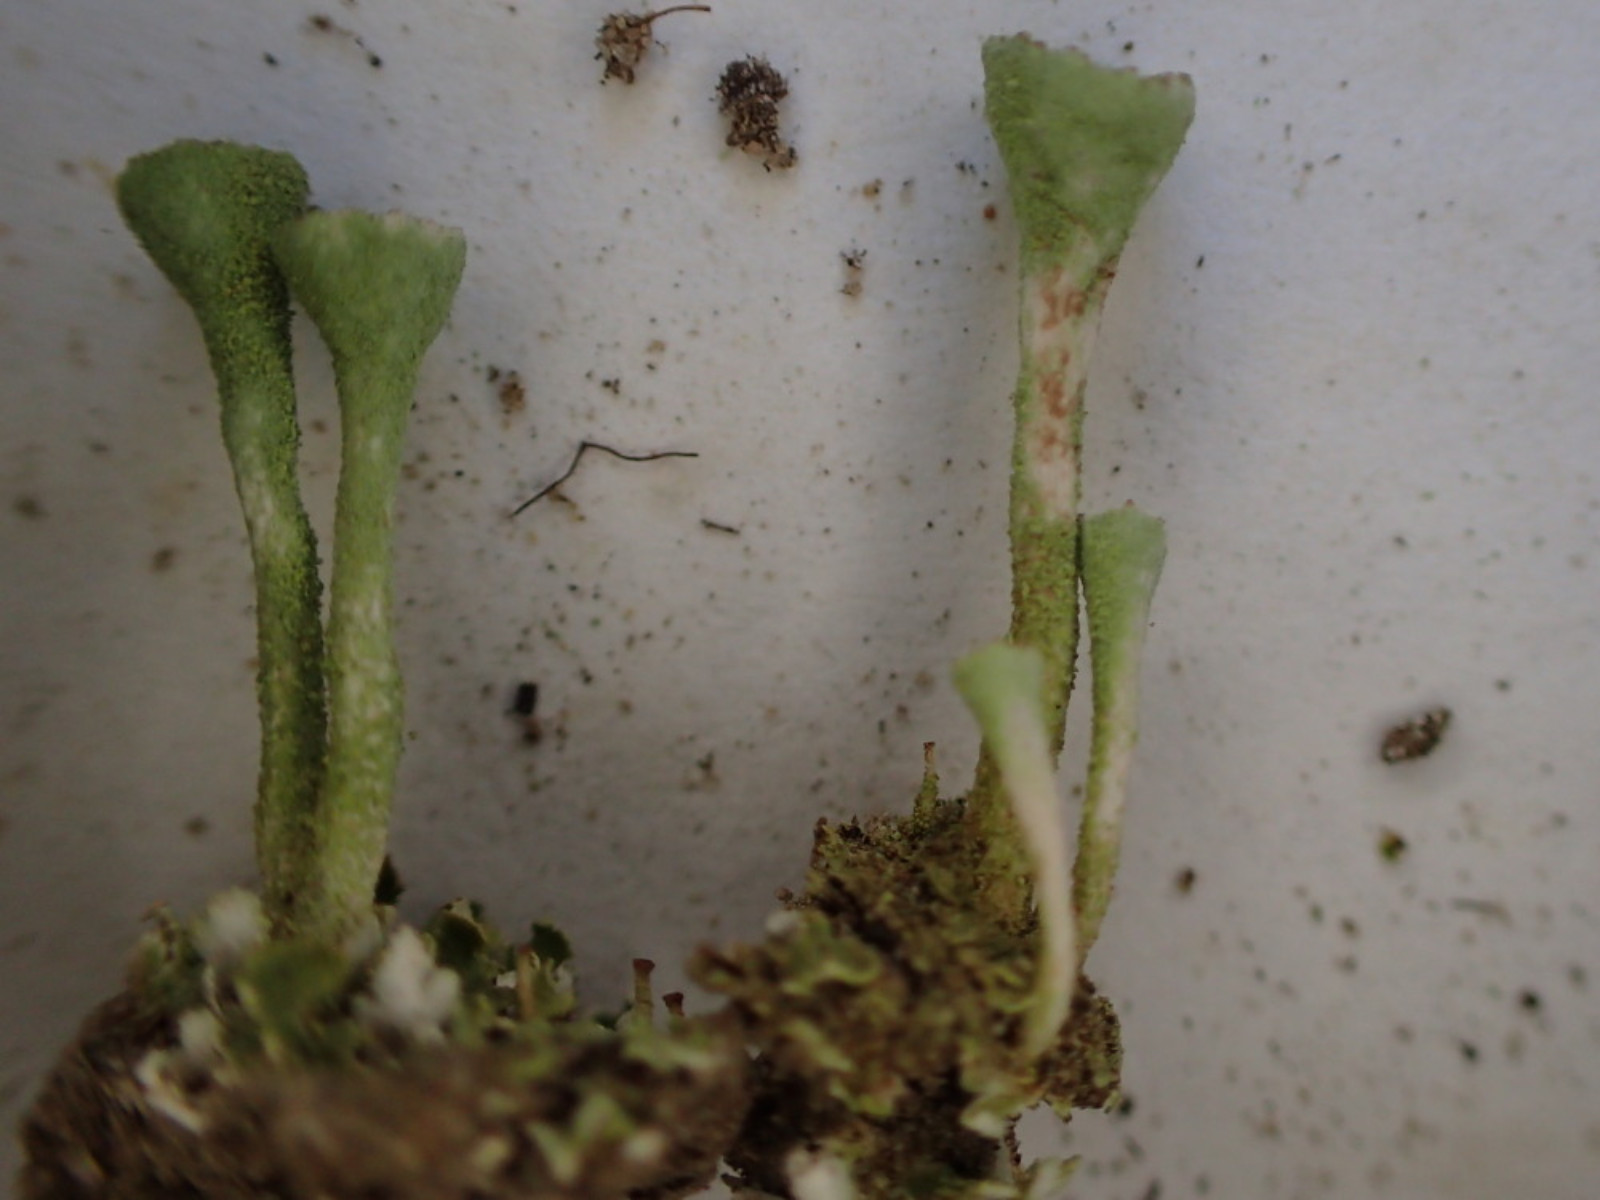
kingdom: Fungi
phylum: Ascomycota
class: Lecanoromycetes
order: Lecanorales
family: Cladoniaceae
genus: Cladonia
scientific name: Cladonia fimbriata
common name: bleggrøn bægerlav
